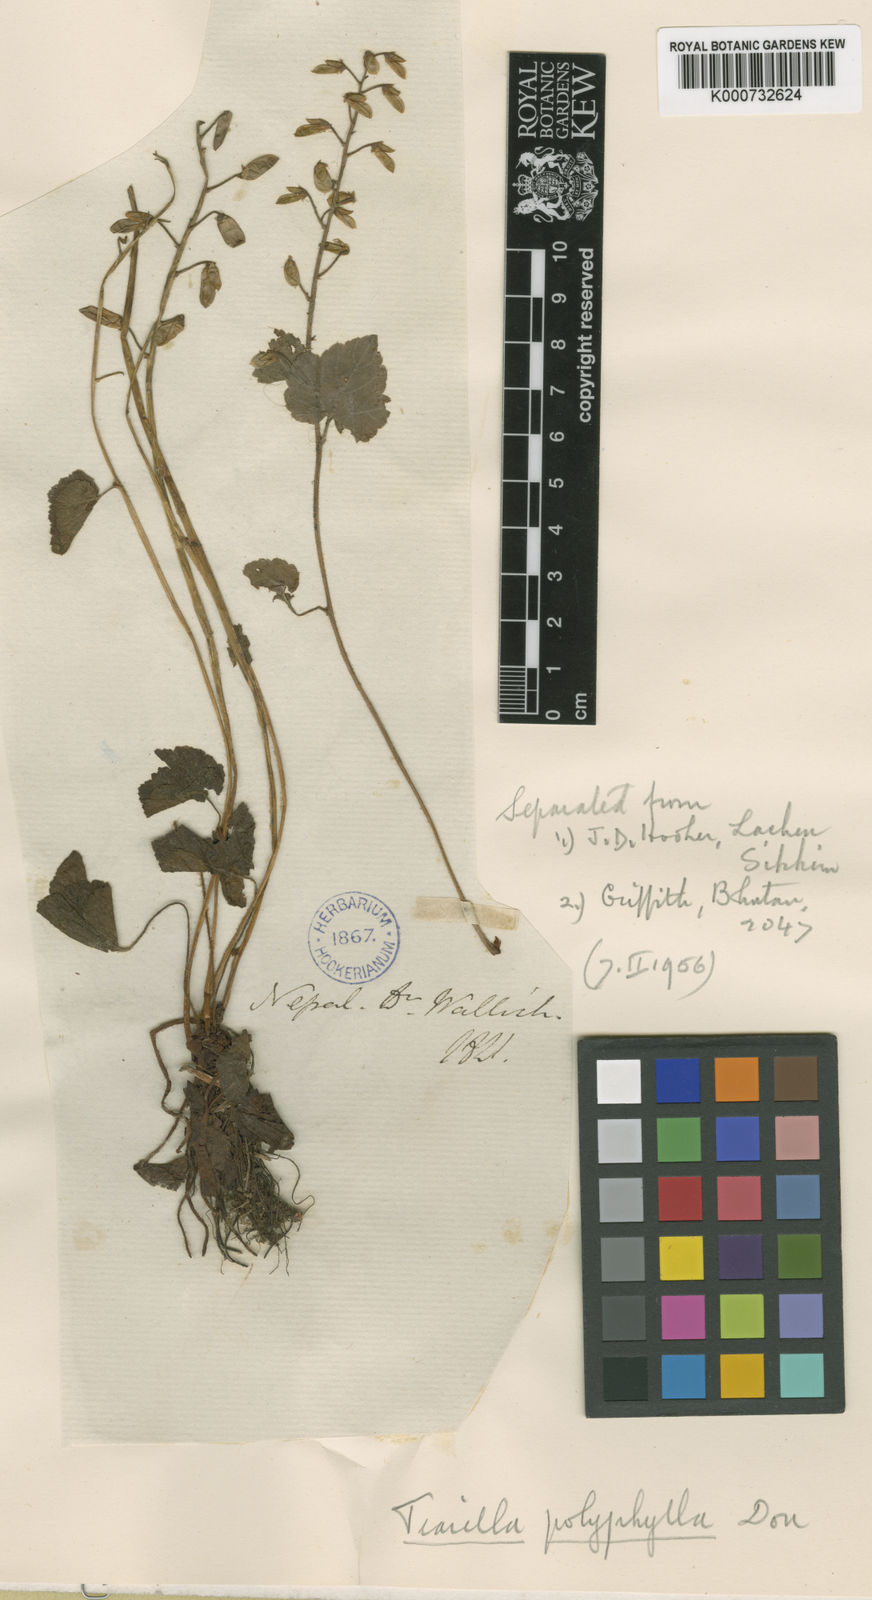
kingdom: Plantae
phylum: Tracheophyta
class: Magnoliopsida
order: Saxifragales
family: Saxifragaceae
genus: Tiarella
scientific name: Tiarella polyphylla
